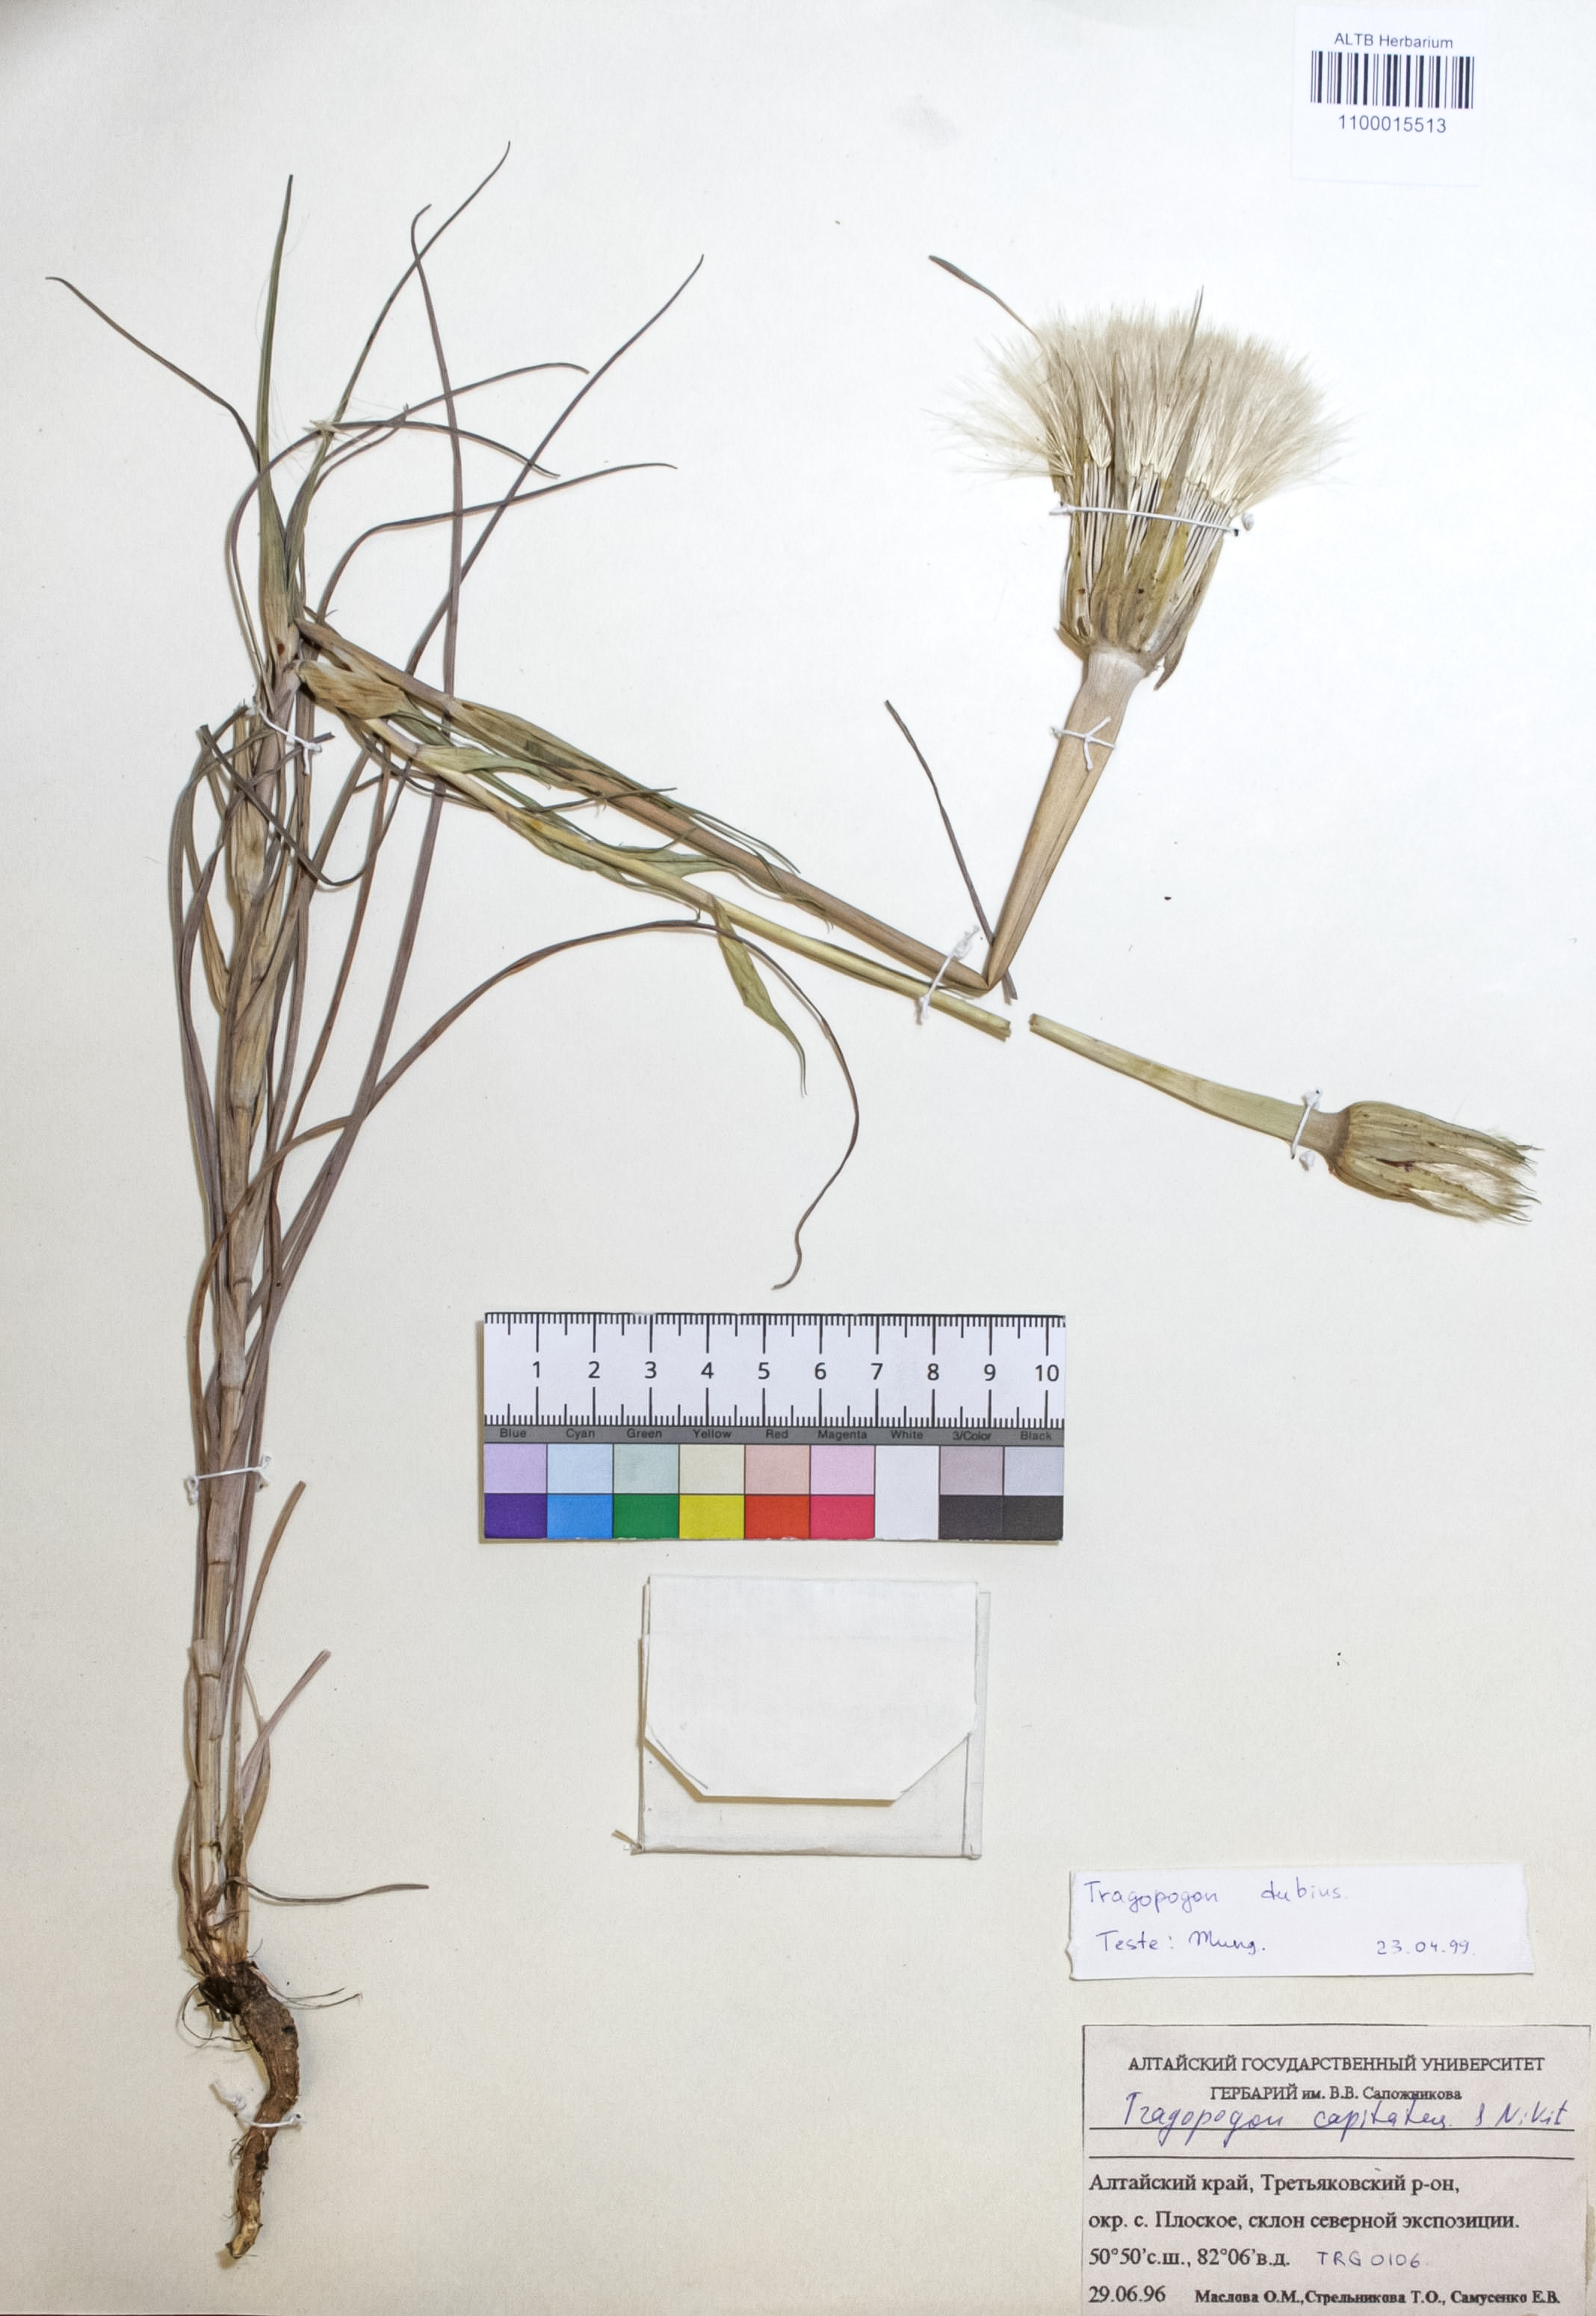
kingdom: Plantae
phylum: Tracheophyta
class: Magnoliopsida
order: Asterales
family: Asteraceae
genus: Tragopogon
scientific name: Tragopogon dubius
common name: Yellow salsify
